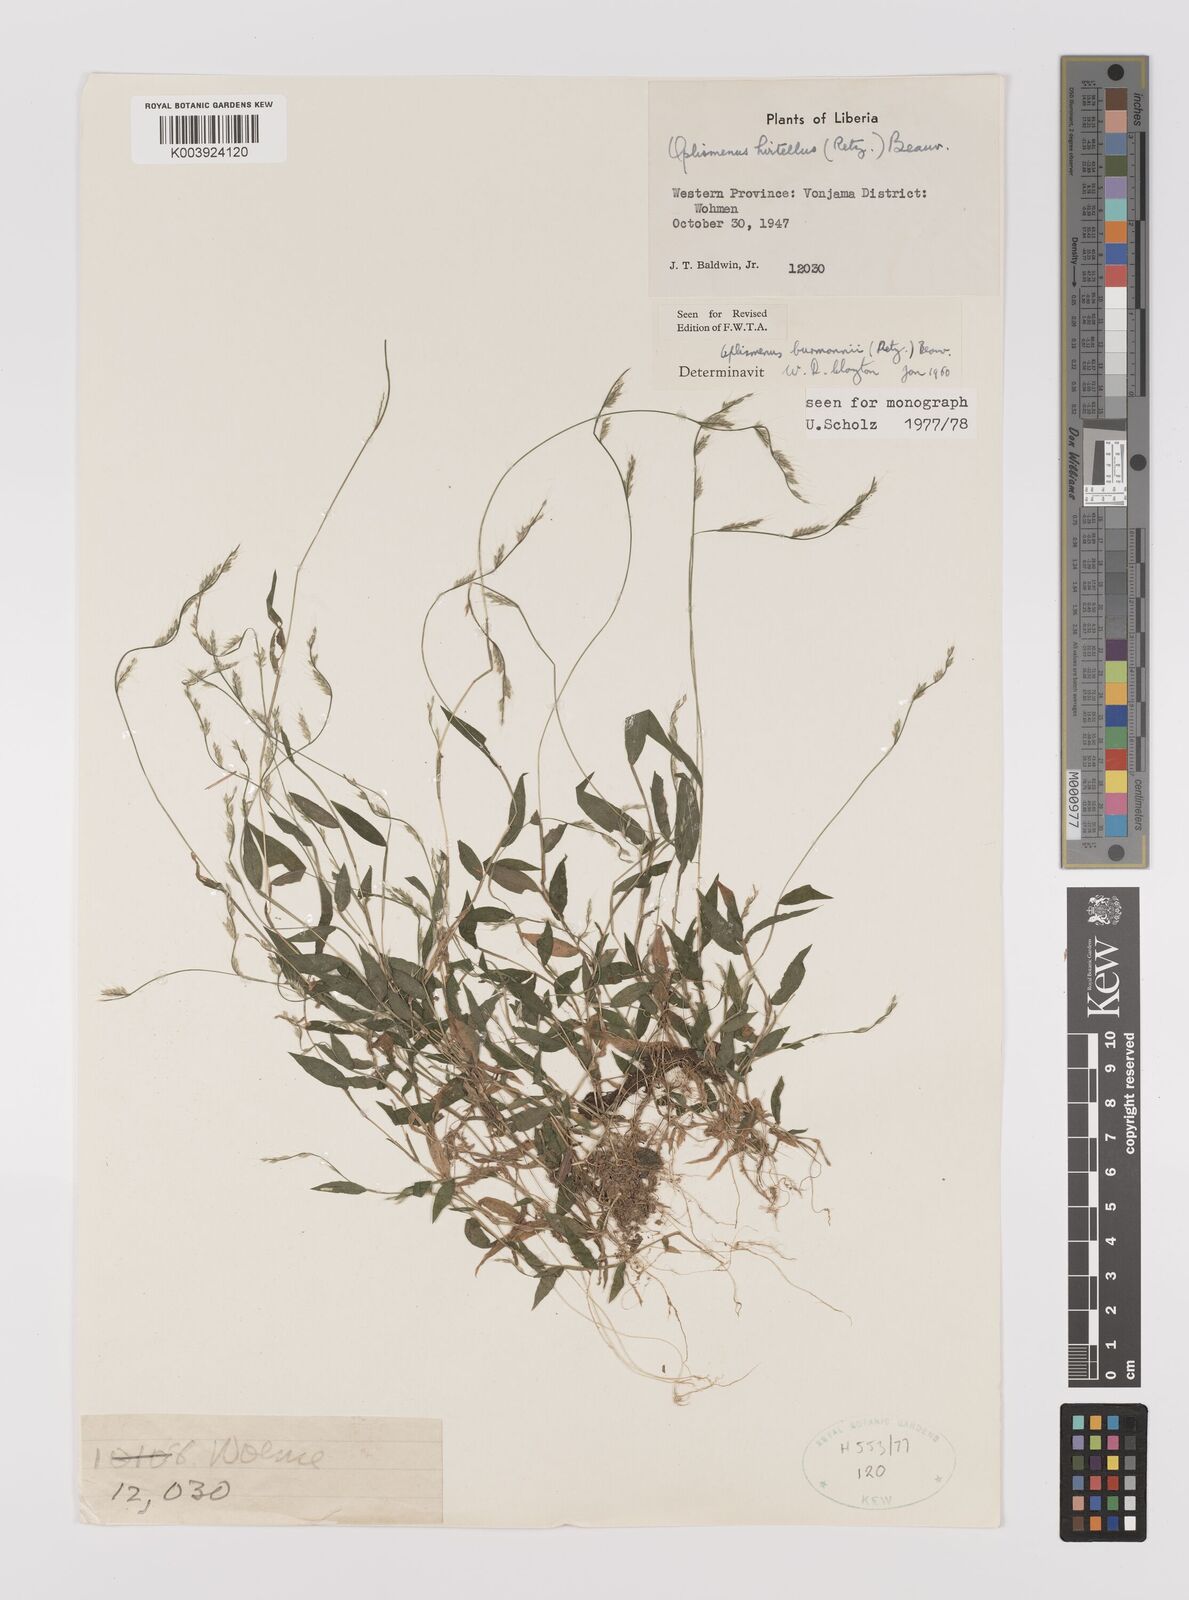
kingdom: Plantae
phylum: Tracheophyta
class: Liliopsida
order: Poales
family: Poaceae
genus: Oplismenus
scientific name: Oplismenus burmanni
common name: Burmann's basketgrass
